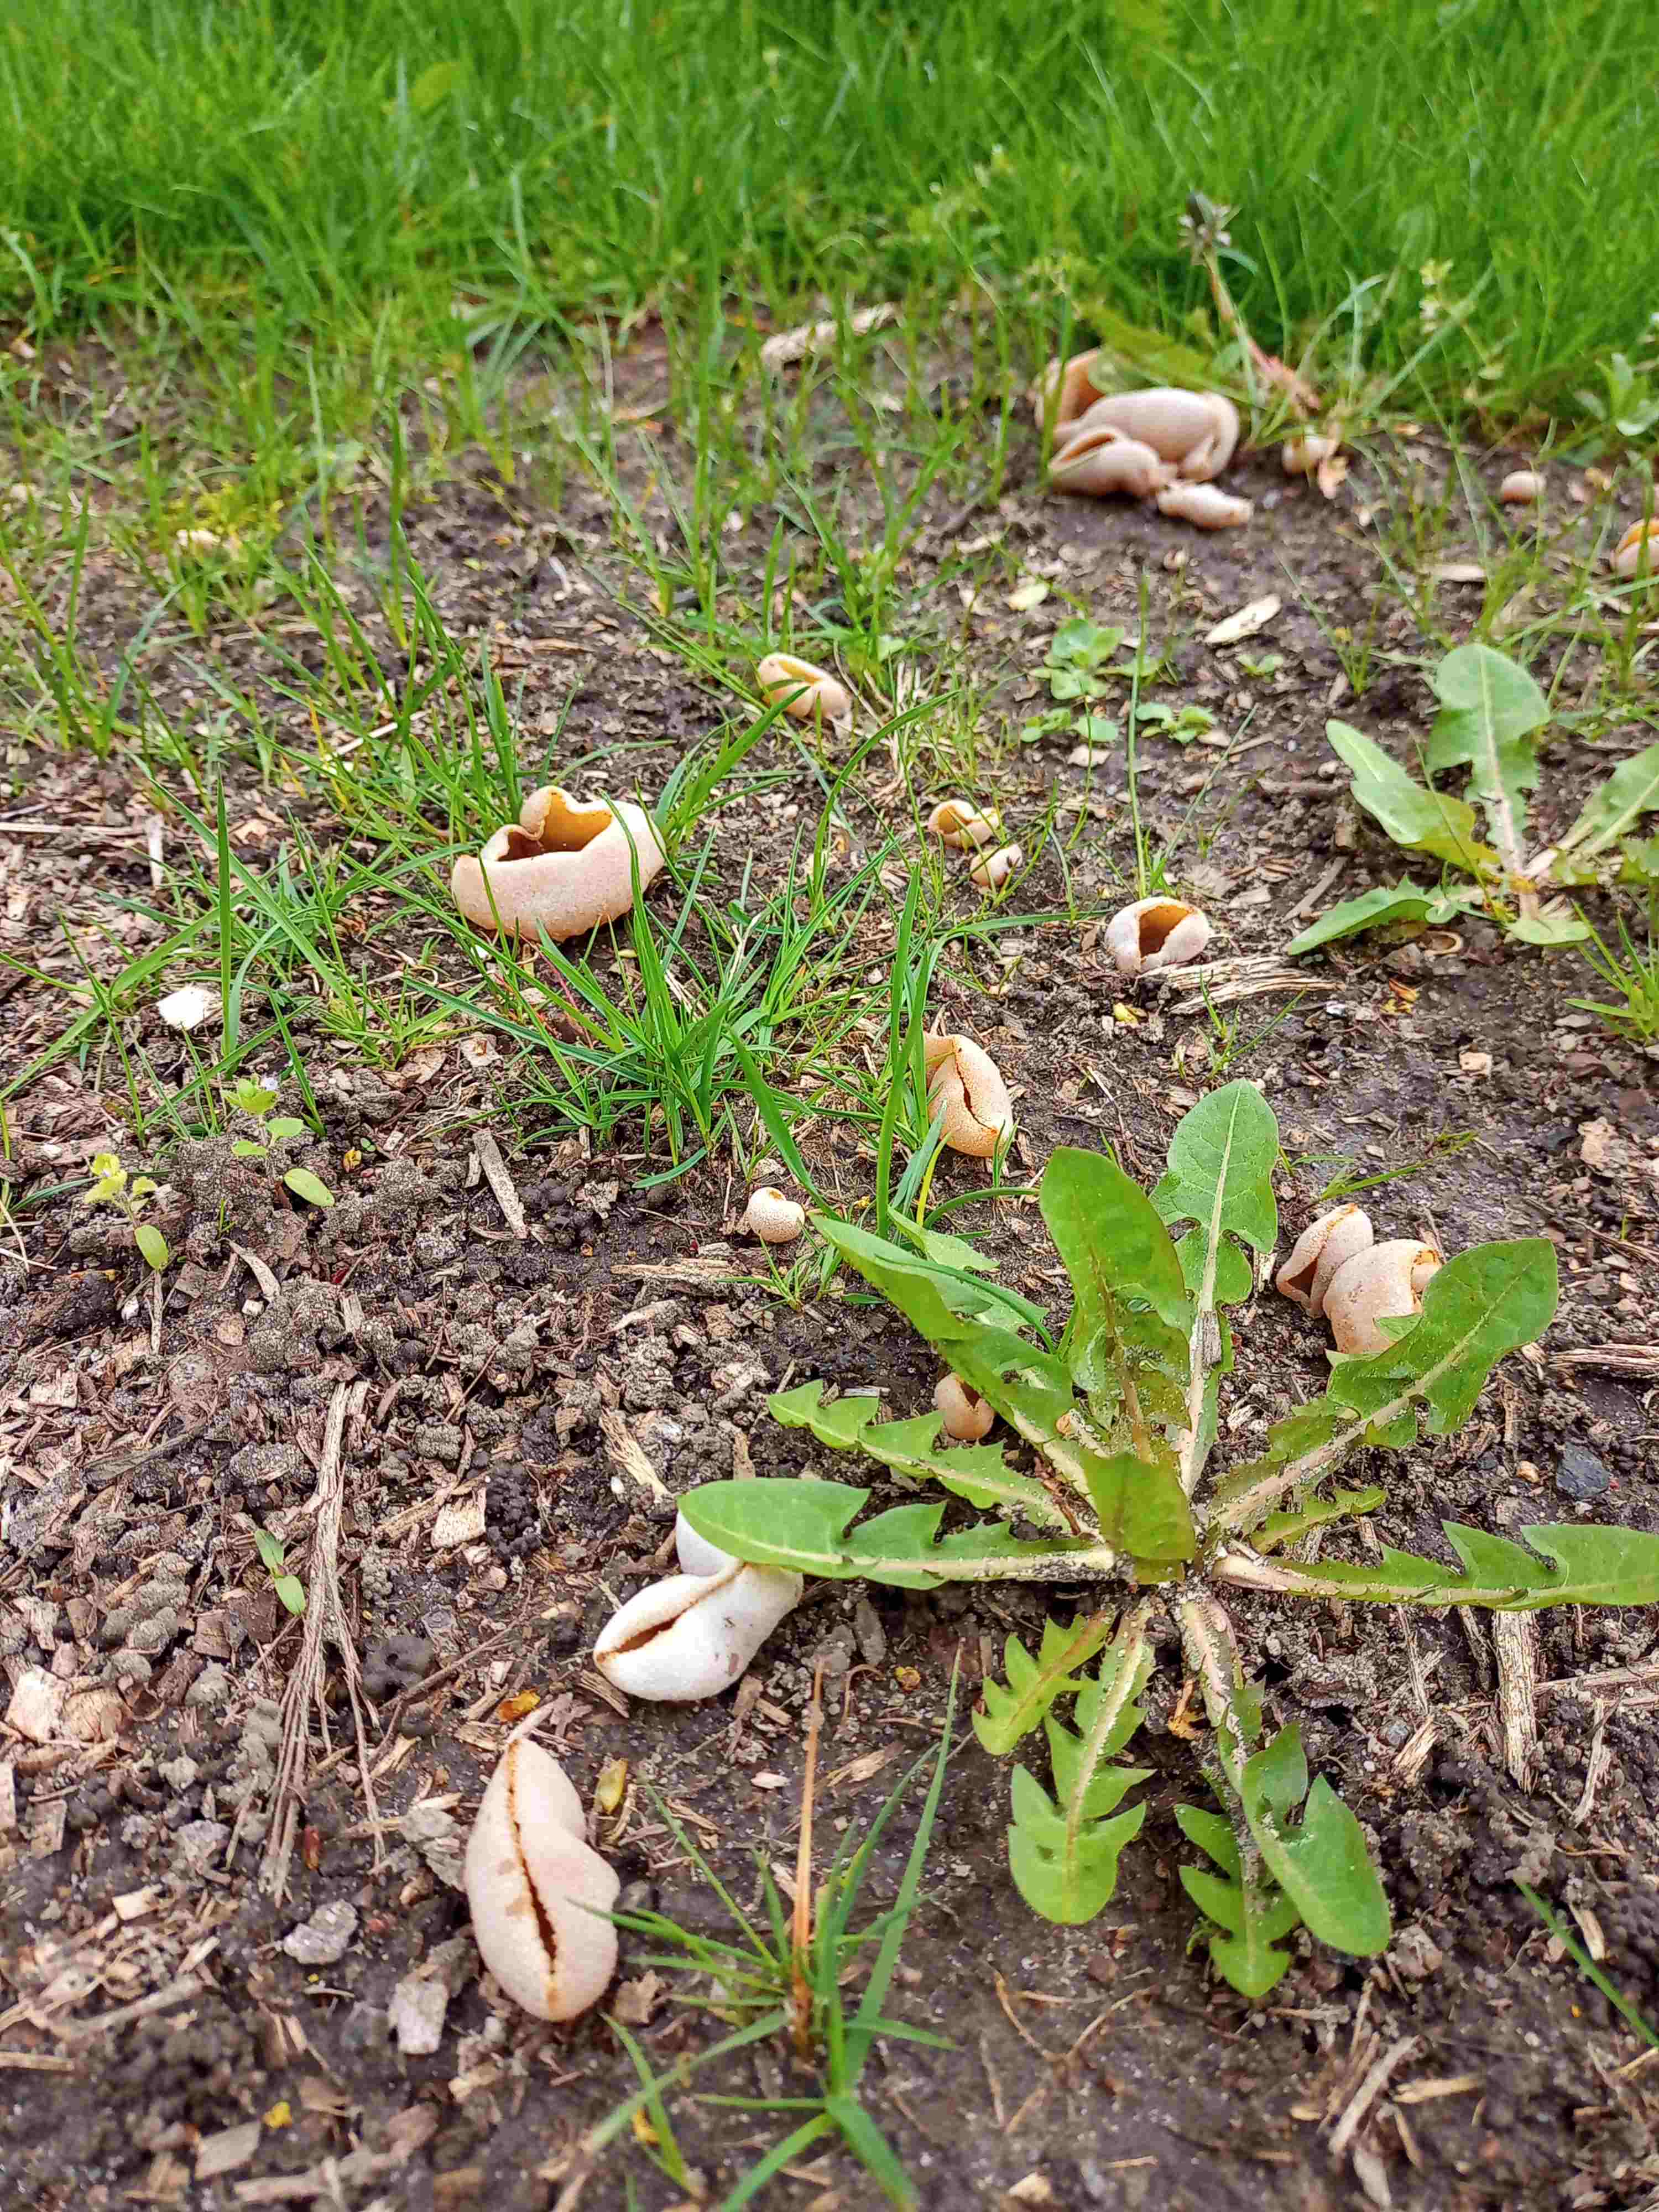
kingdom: Fungi
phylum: Ascomycota
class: Pezizomycetes
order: Pezizales
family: Pezizaceae
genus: Peziza
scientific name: Peziza vesiculosa
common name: blære-bægersvamp
